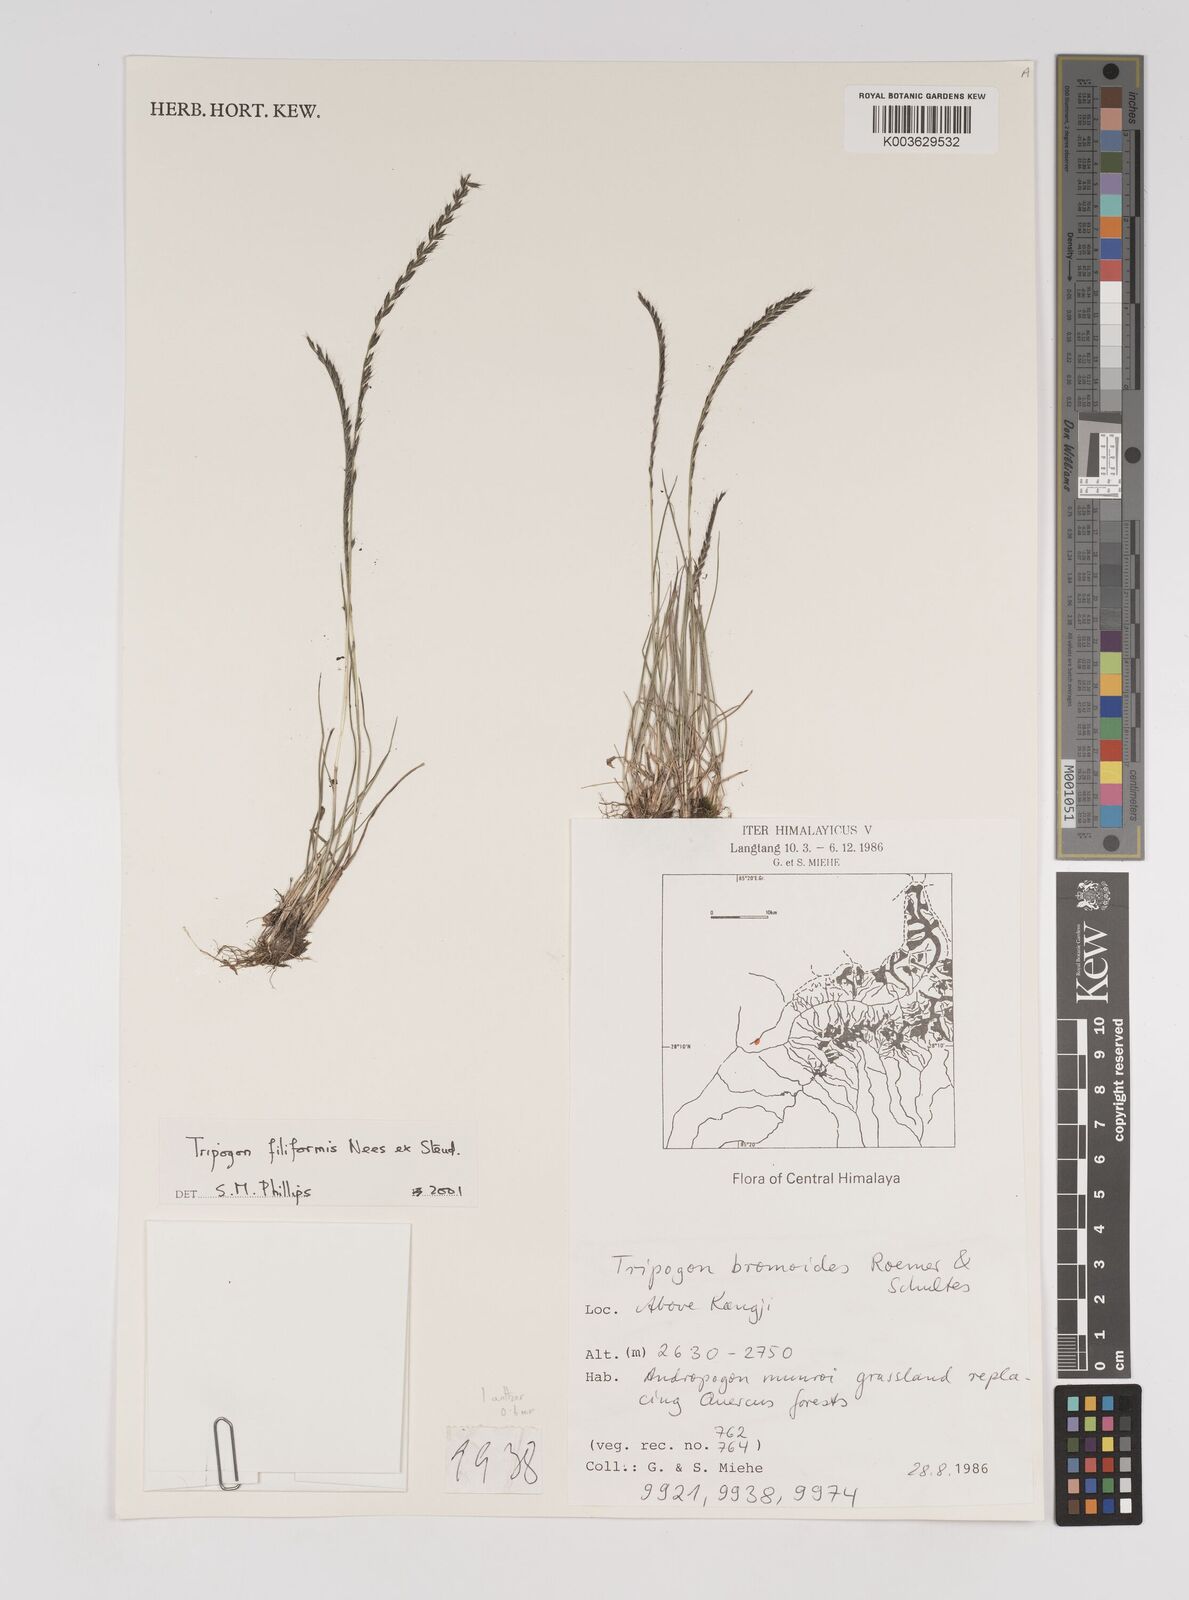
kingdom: Plantae
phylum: Tracheophyta
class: Liliopsida
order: Poales
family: Poaceae
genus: Tripogon
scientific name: Tripogon filiformis
